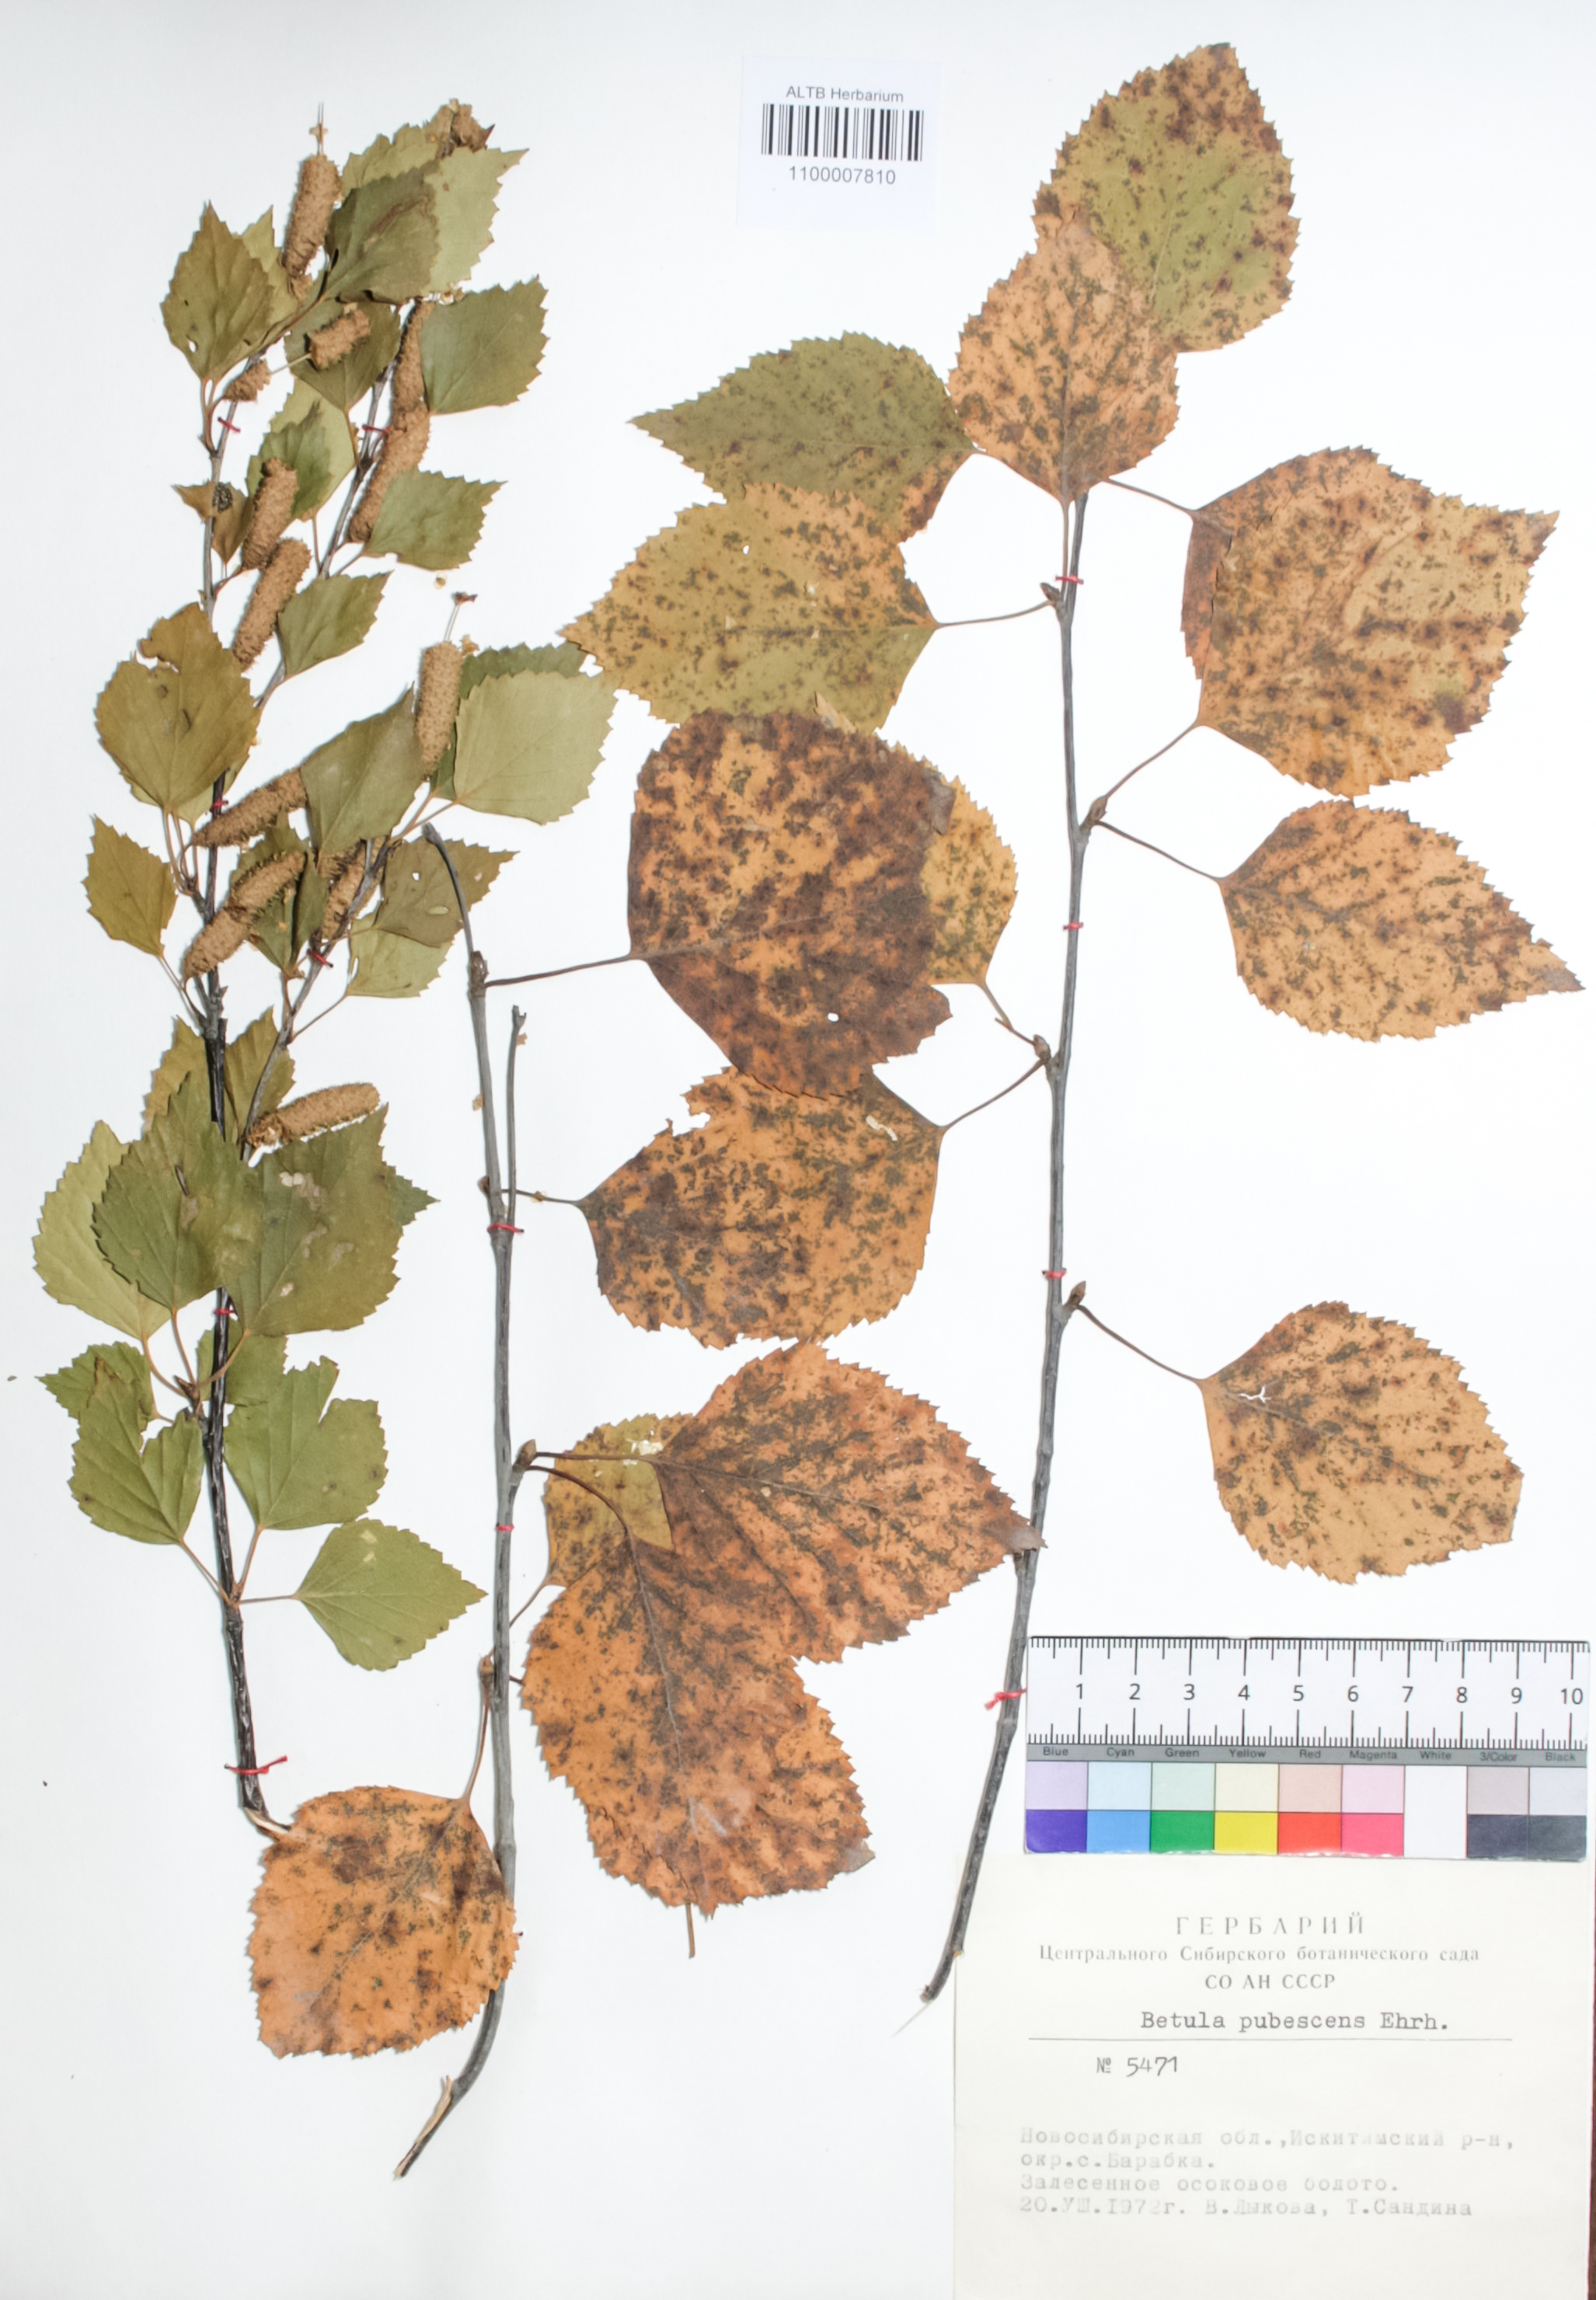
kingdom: Plantae
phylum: Tracheophyta
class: Magnoliopsida
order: Fagales
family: Betulaceae
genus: Betula
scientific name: Betula pubescens
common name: Downy birch
